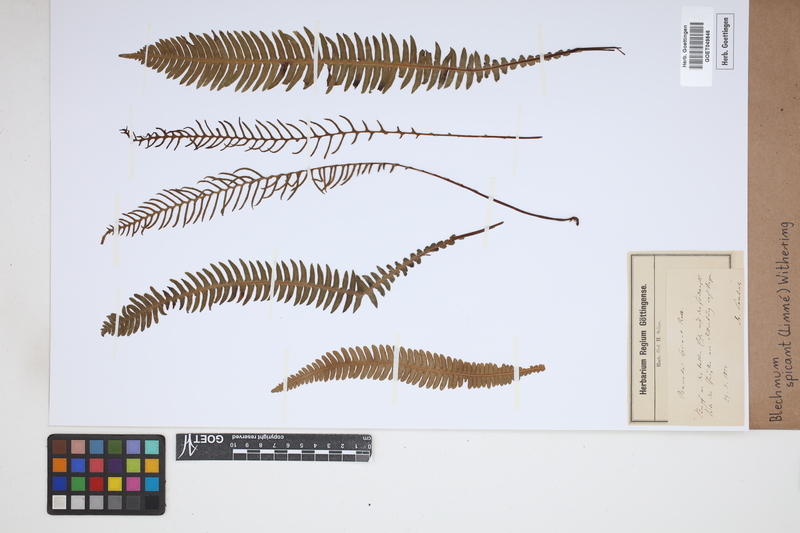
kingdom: Plantae
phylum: Tracheophyta
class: Polypodiopsida
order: Polypodiales
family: Blechnaceae
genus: Struthiopteris
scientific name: Struthiopteris spicant
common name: Deer fern
